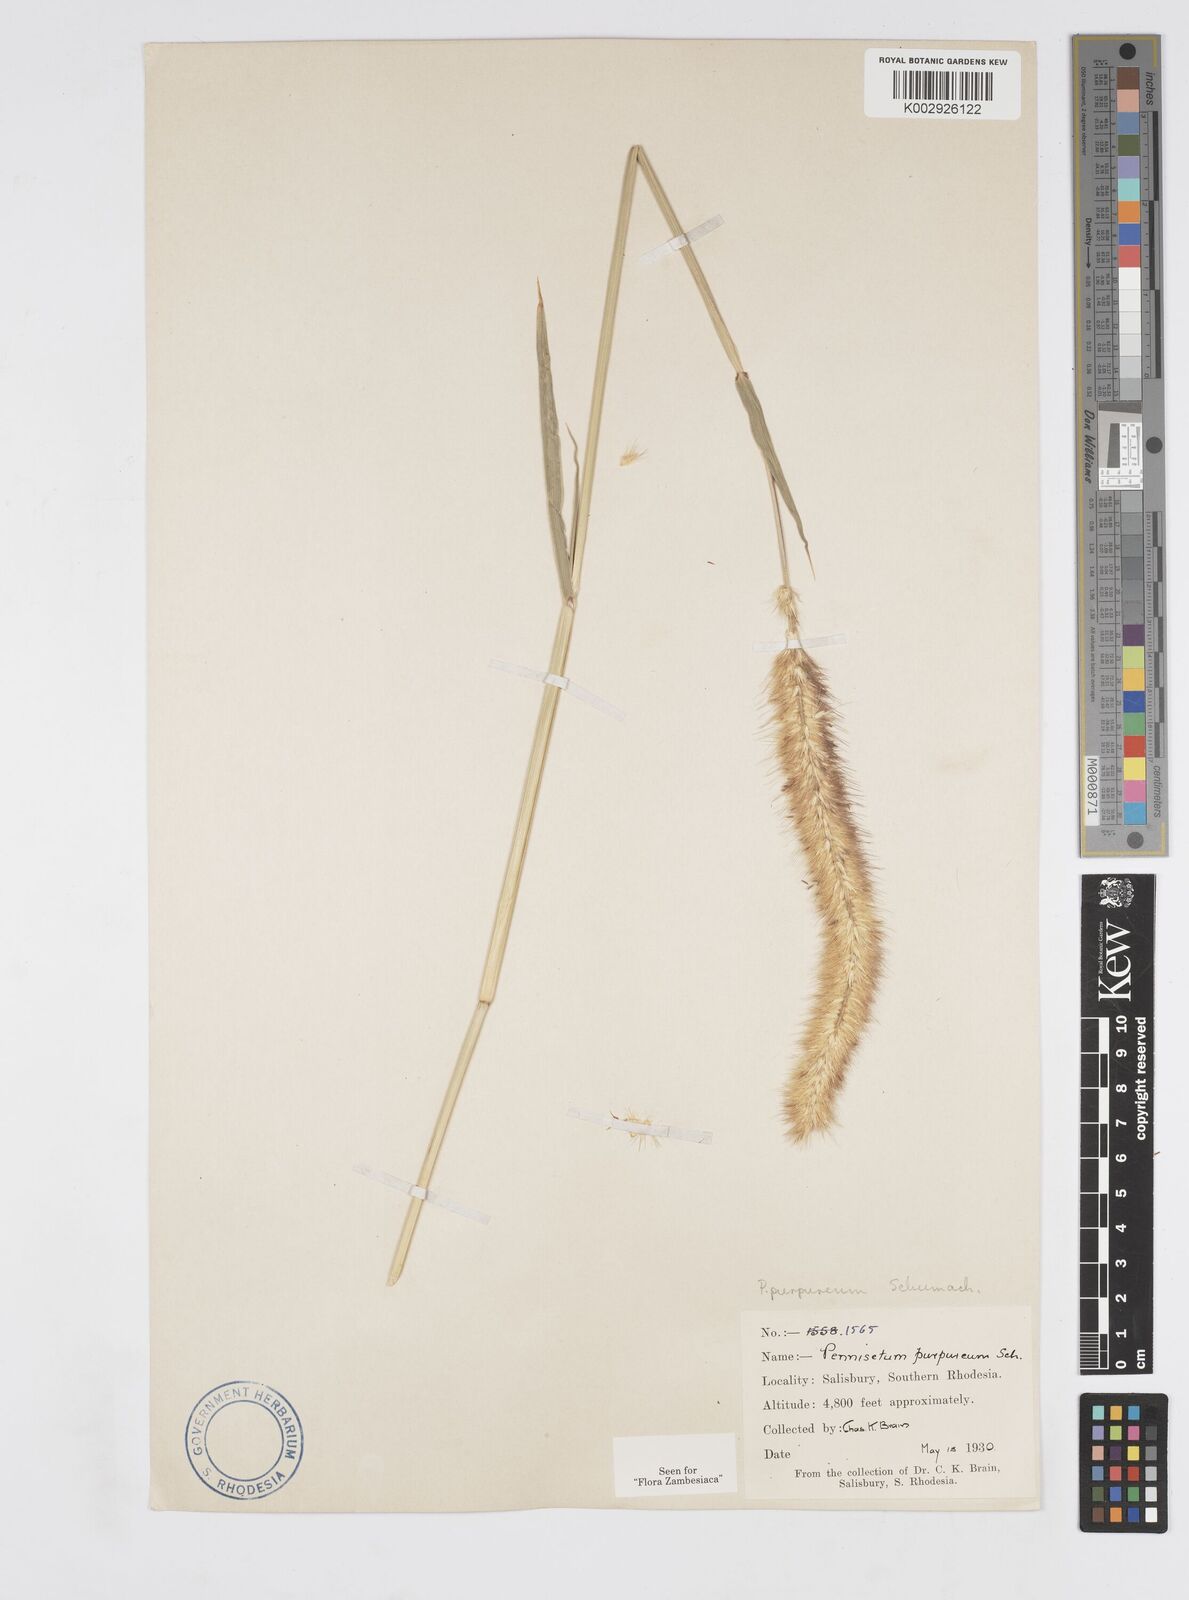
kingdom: Plantae
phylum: Tracheophyta
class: Liliopsida
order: Poales
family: Poaceae
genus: Cenchrus
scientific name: Cenchrus purpureus
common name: Elephant grass
